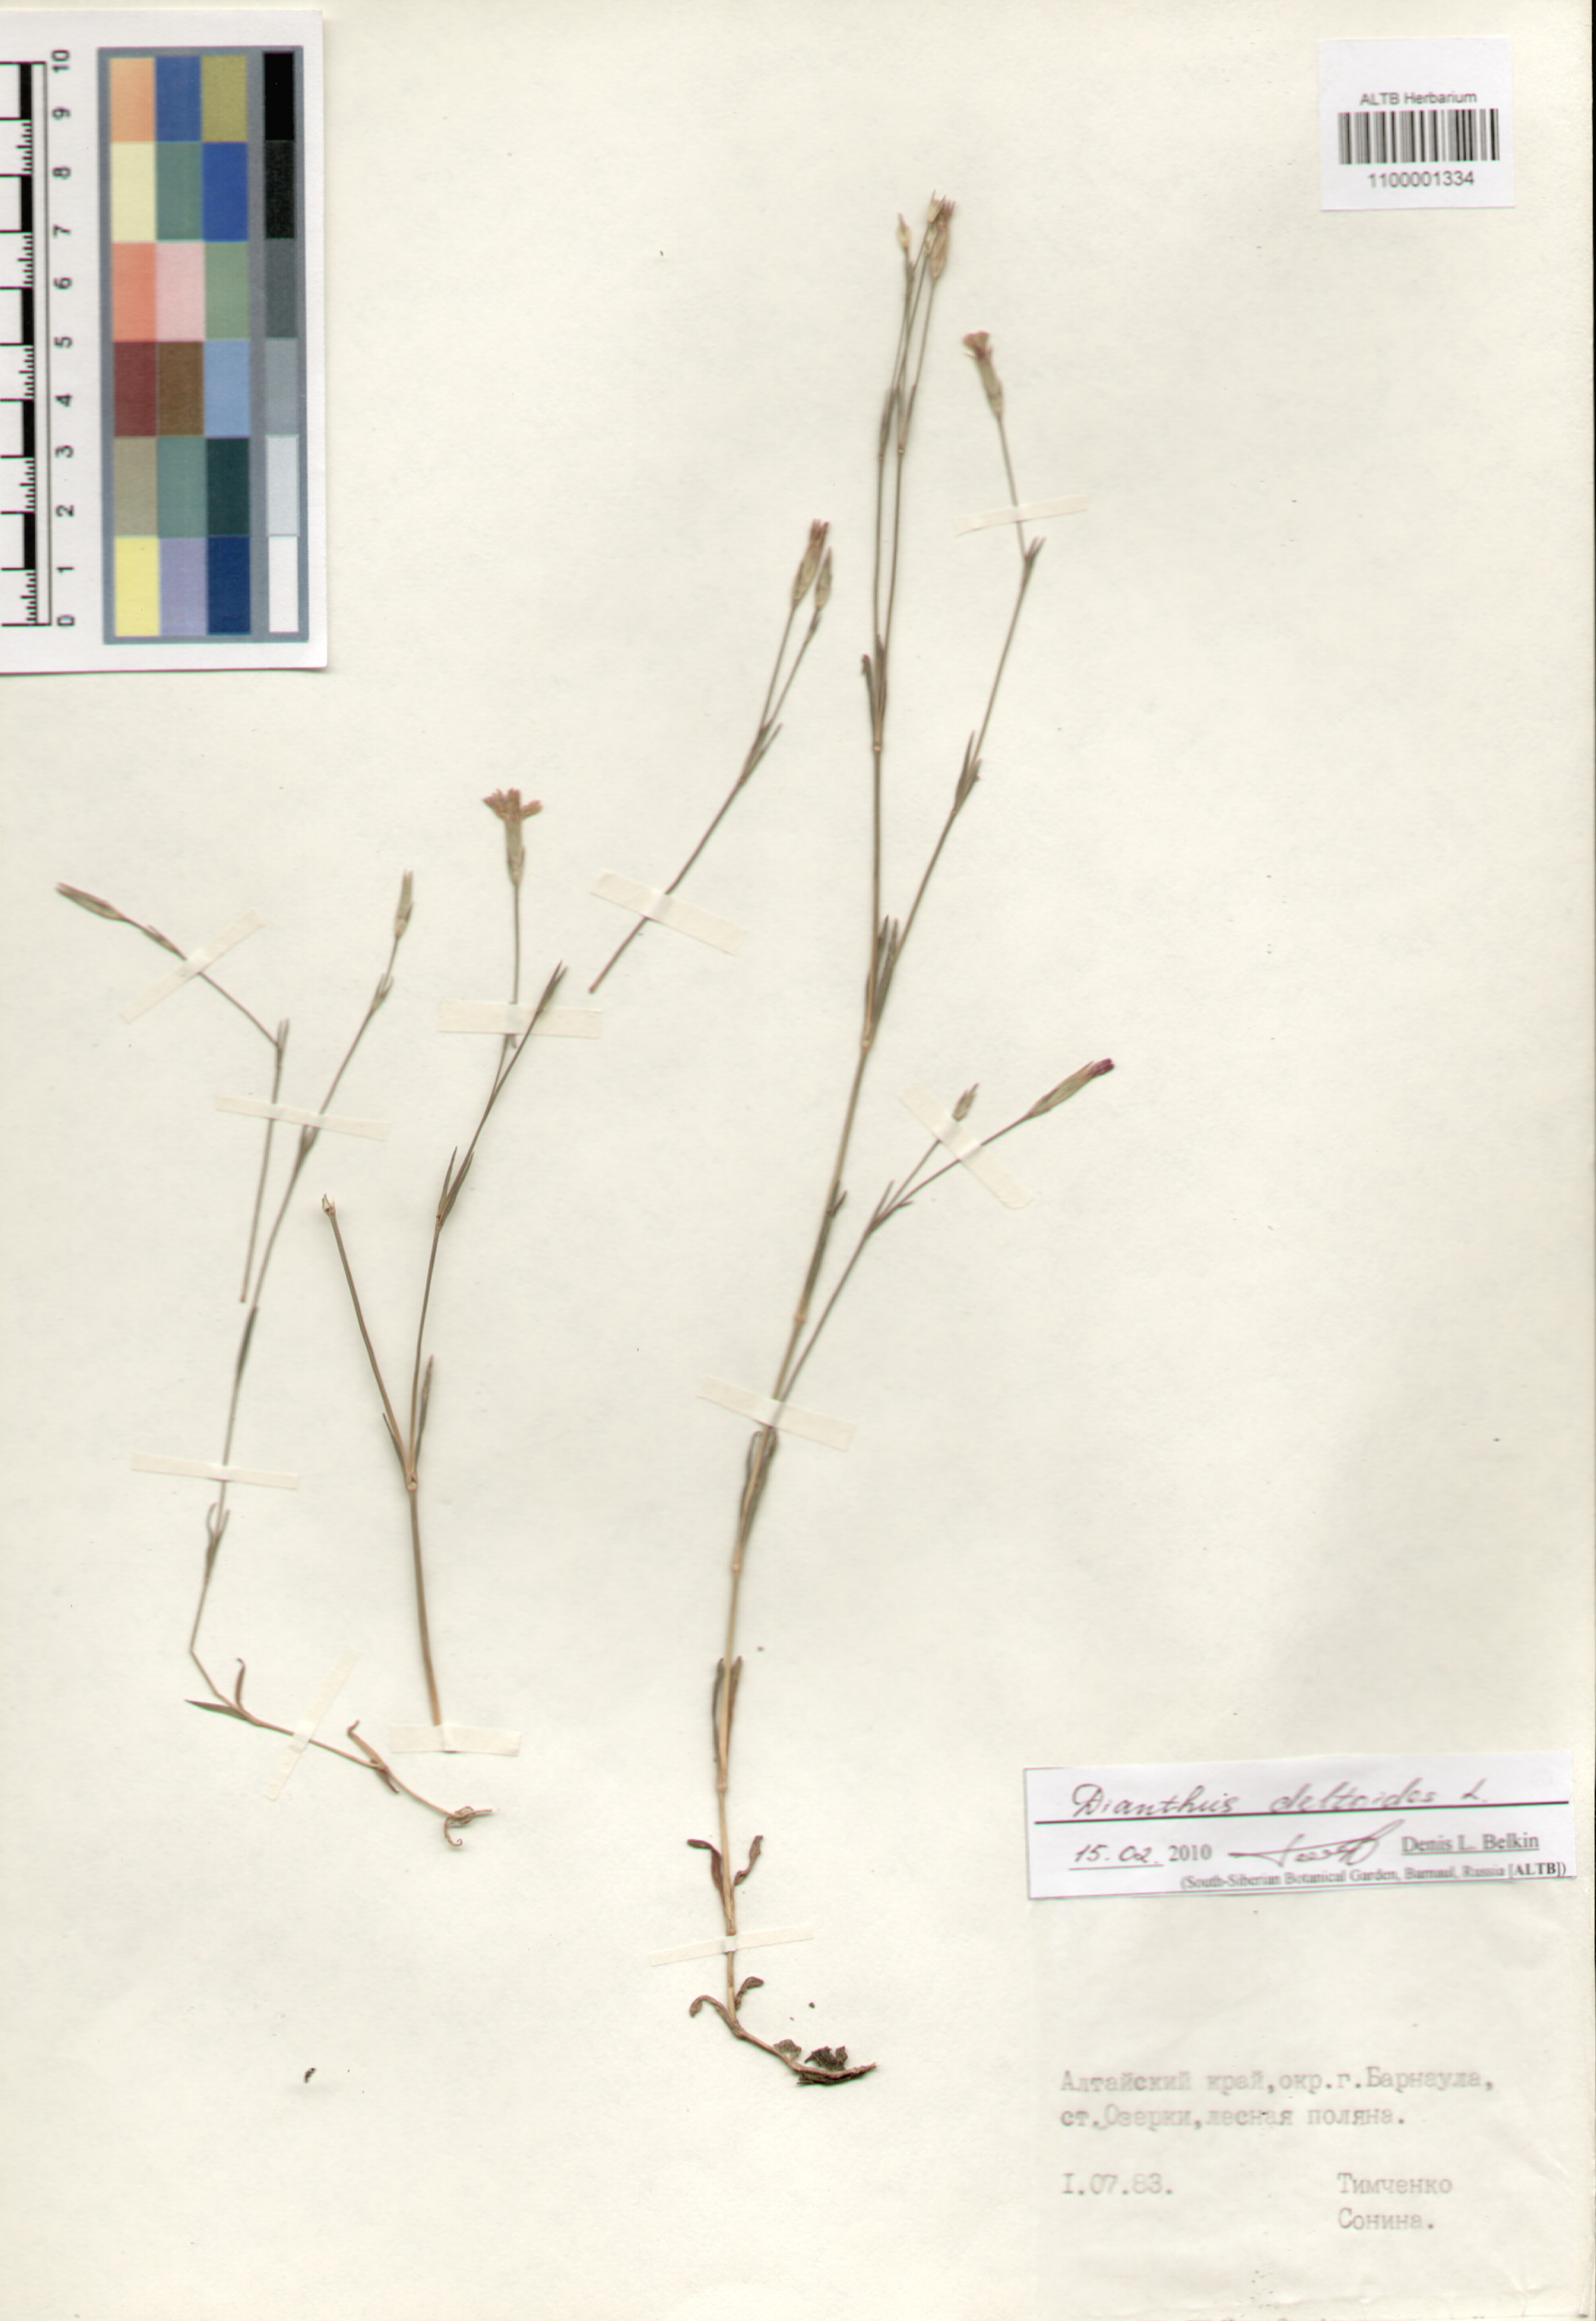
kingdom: Plantae
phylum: Tracheophyta
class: Magnoliopsida
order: Caryophyllales
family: Caryophyllaceae
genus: Dianthus
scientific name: Dianthus deltoides
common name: Maiden pink
